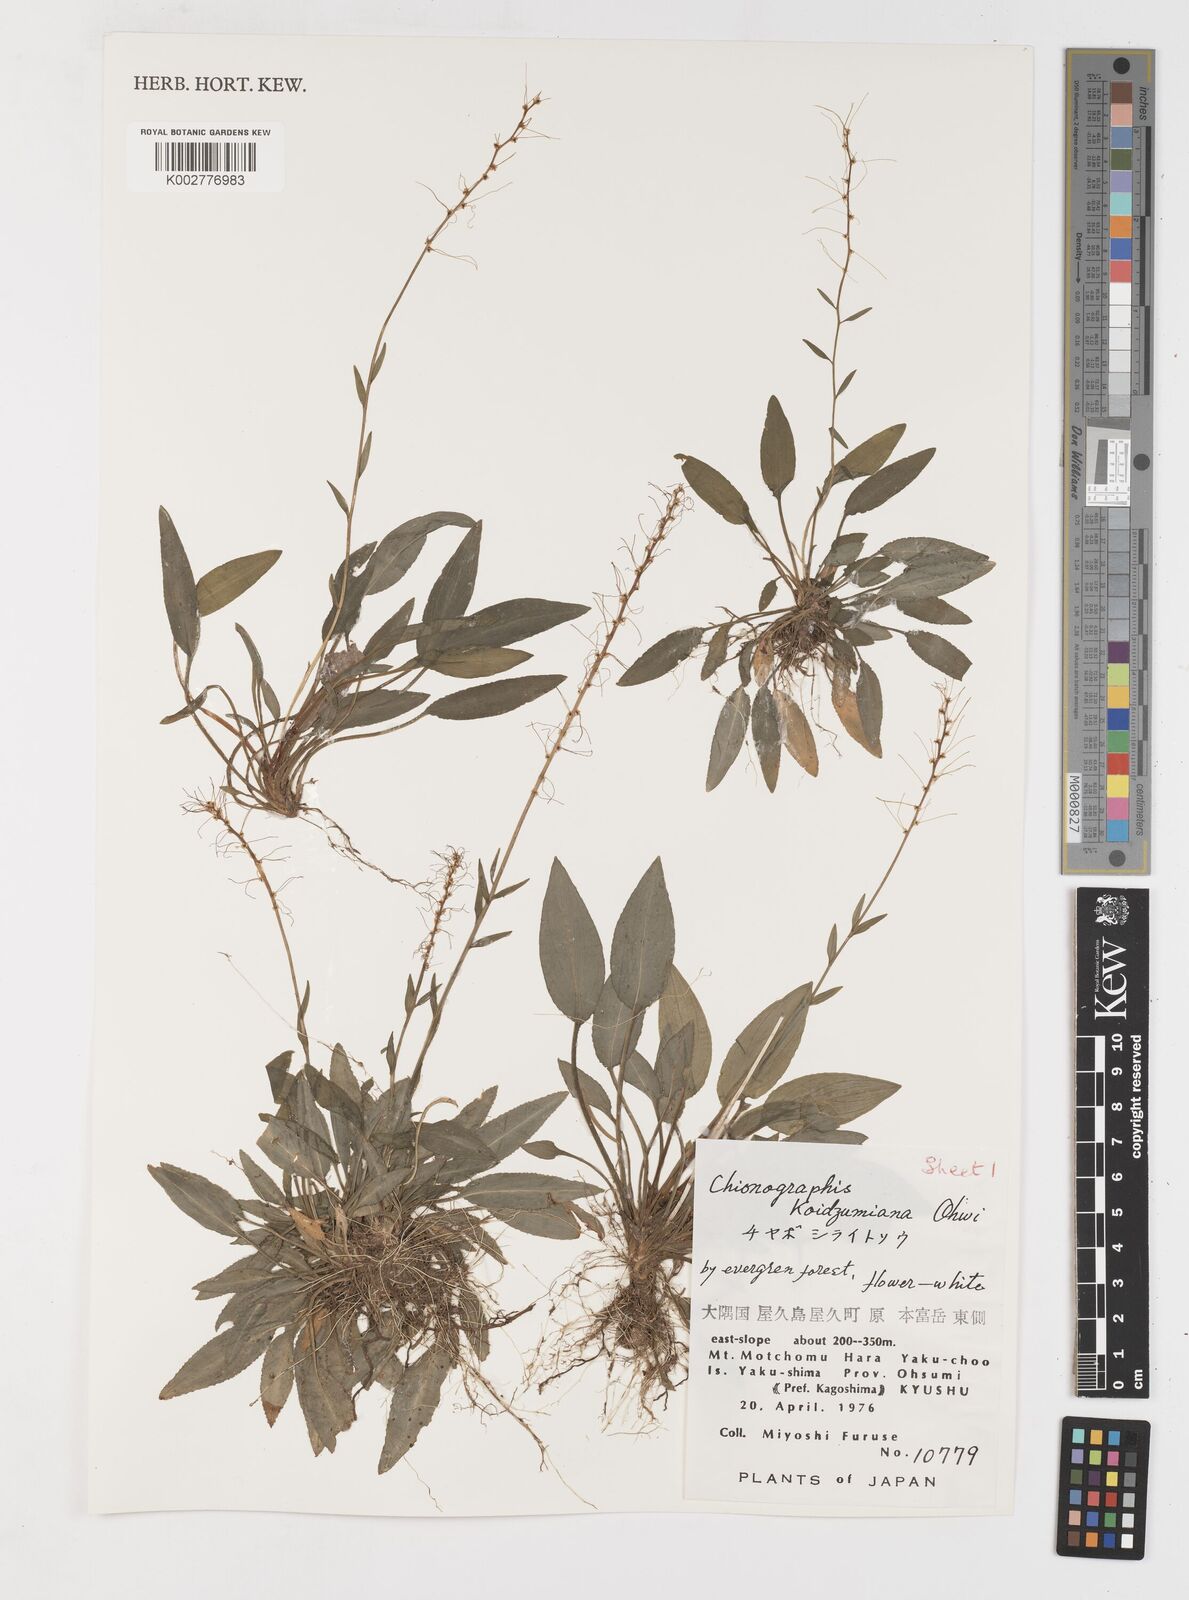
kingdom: Plantae
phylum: Tracheophyta
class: Liliopsida
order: Liliales
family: Melanthiaceae
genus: Chamaelirium
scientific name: Chamaelirium koidzumianum
